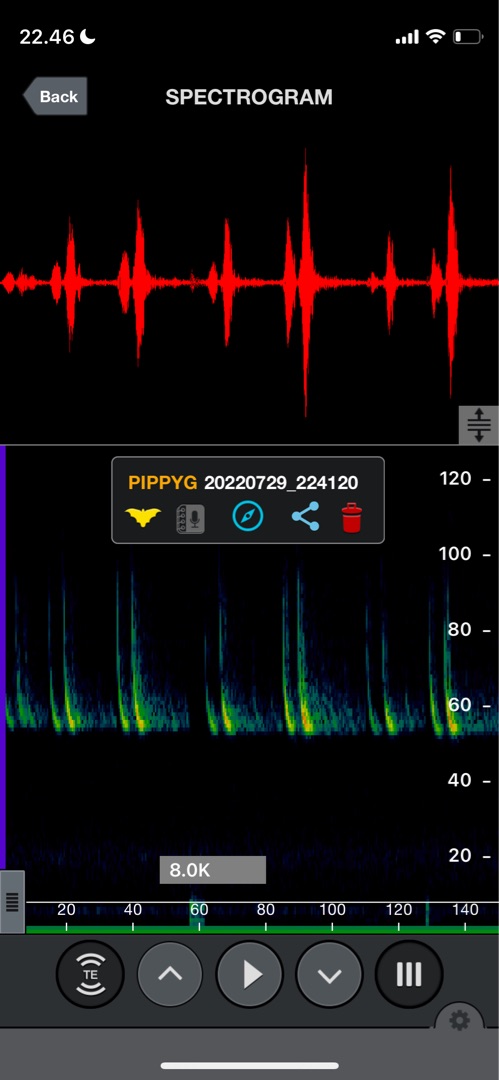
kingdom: Animalia
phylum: Chordata
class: Mammalia
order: Chiroptera
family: Vespertilionidae
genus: Pipistrellus
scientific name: Pipistrellus pygmaeus
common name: Dværgflagermus
